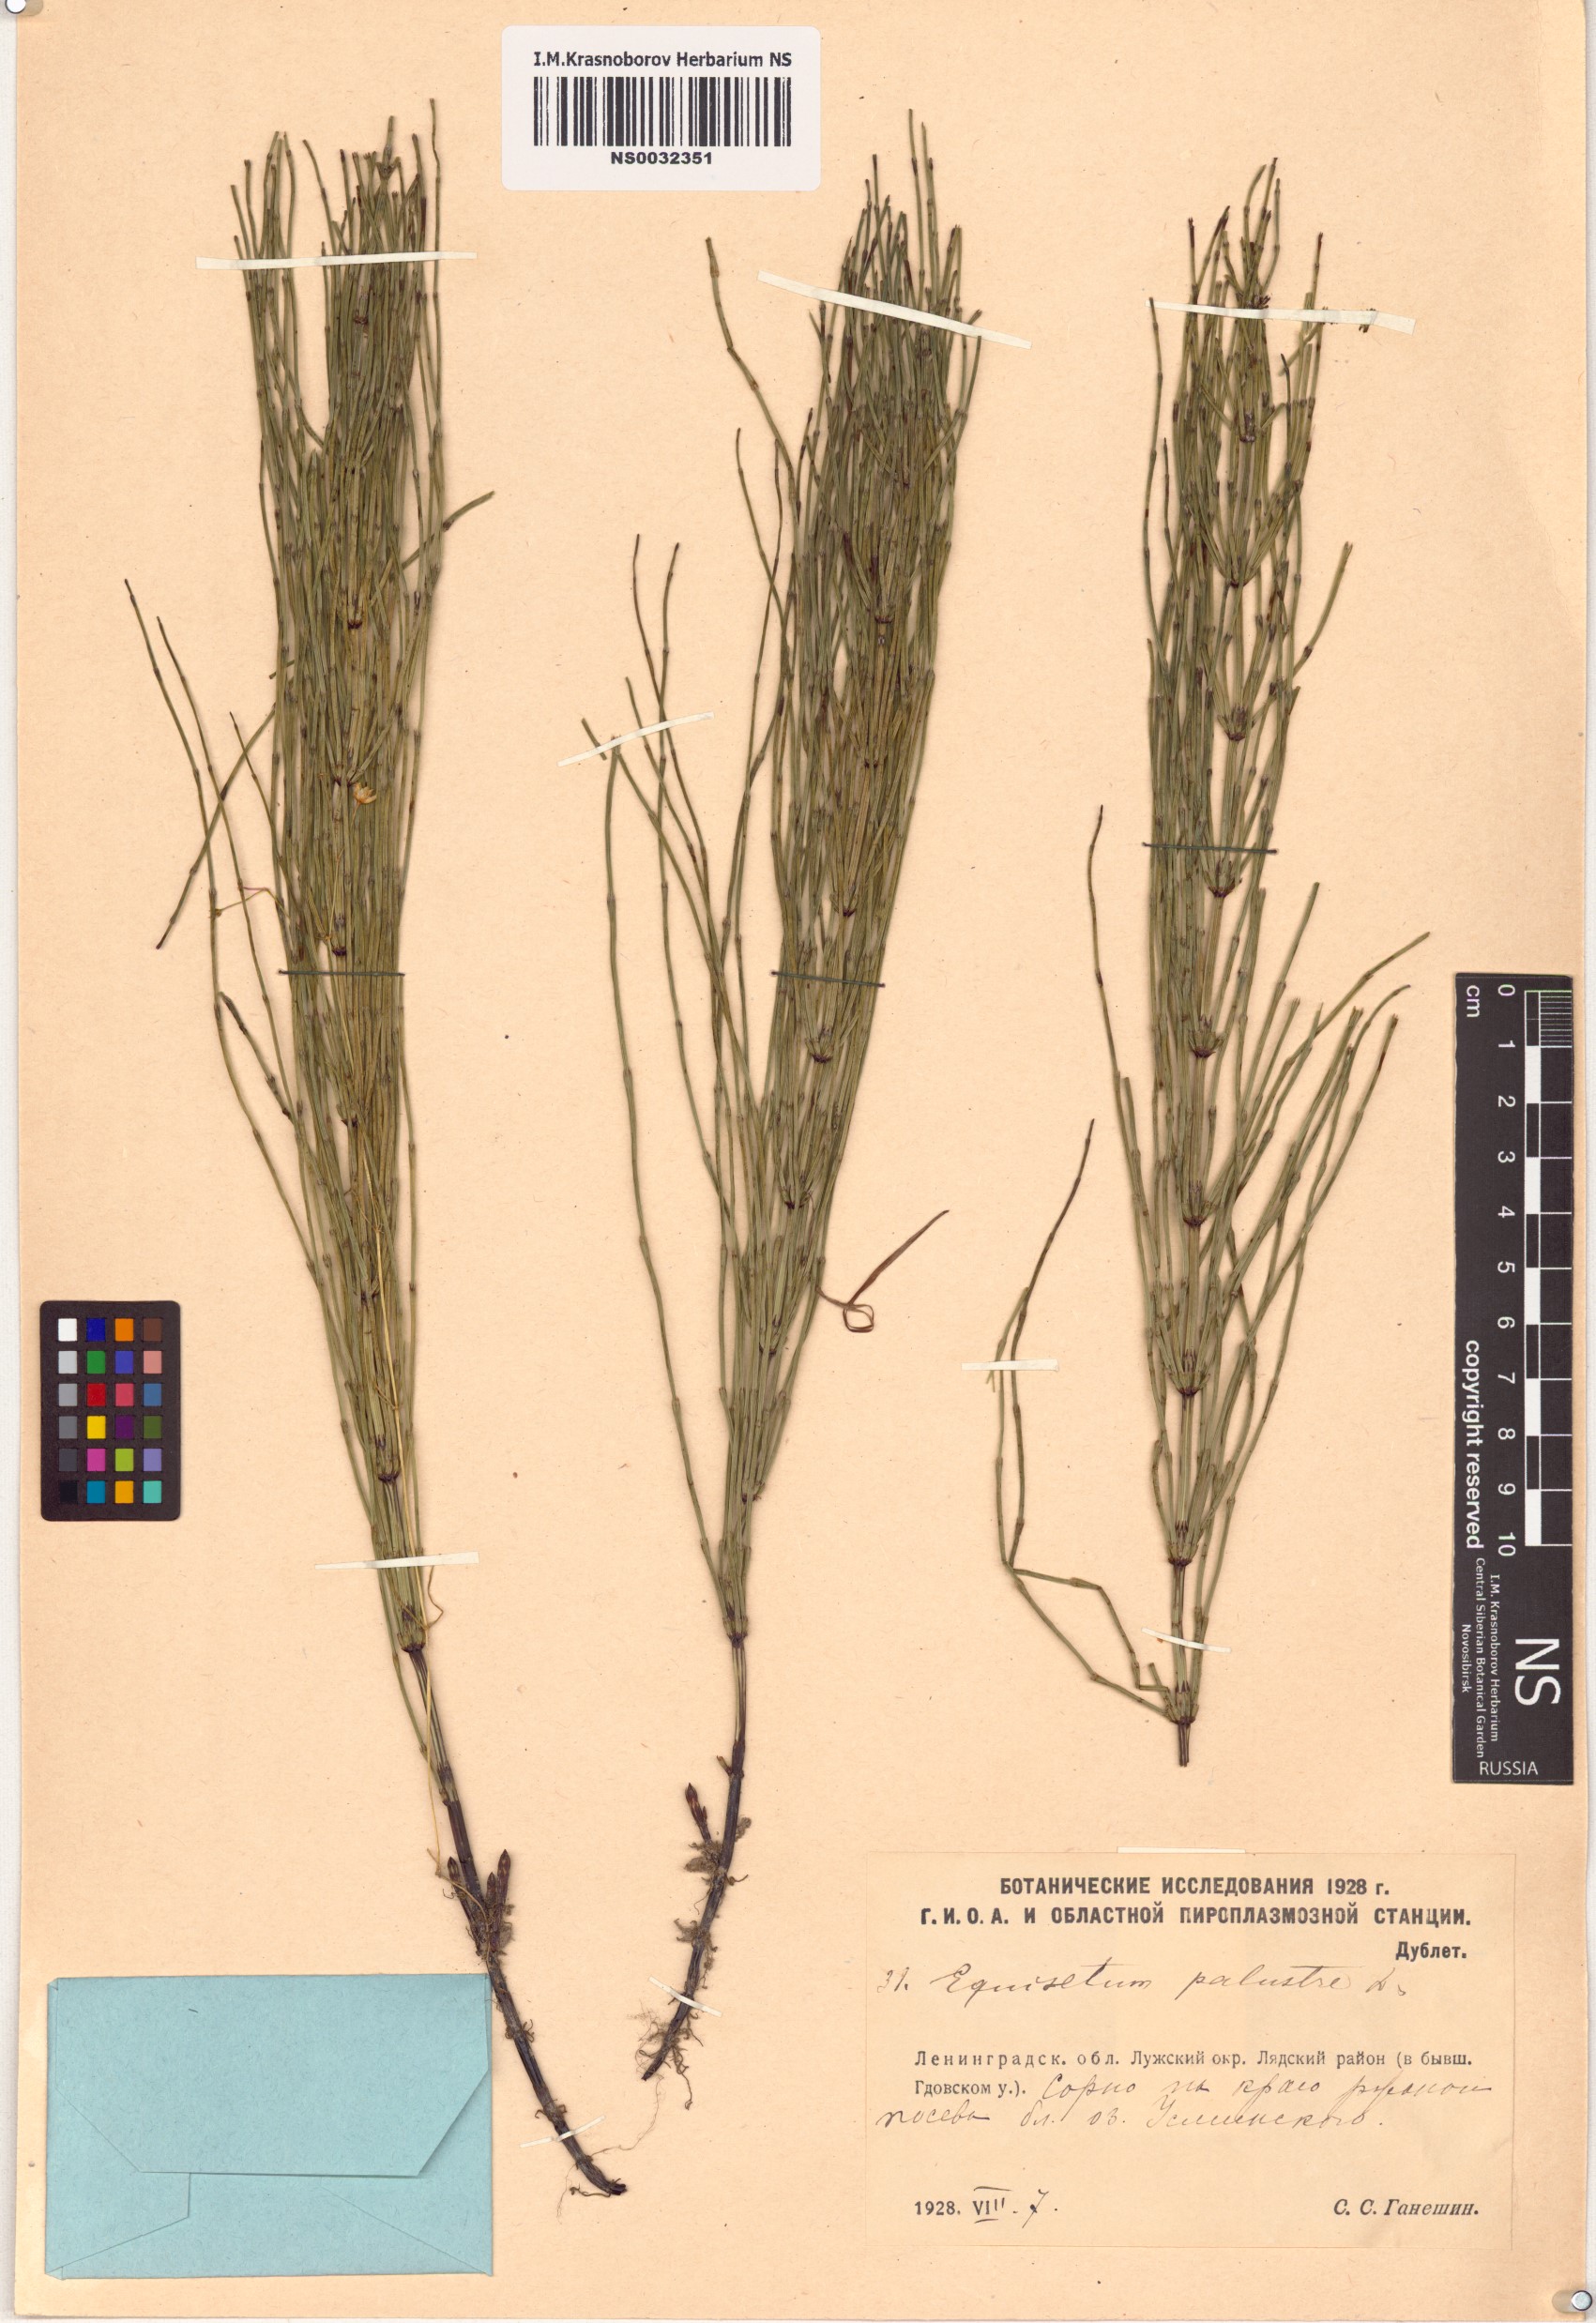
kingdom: Plantae
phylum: Tracheophyta
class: Polypodiopsida
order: Equisetales
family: Equisetaceae
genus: Equisetum
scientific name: Equisetum palustre
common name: Marsh horsetail
